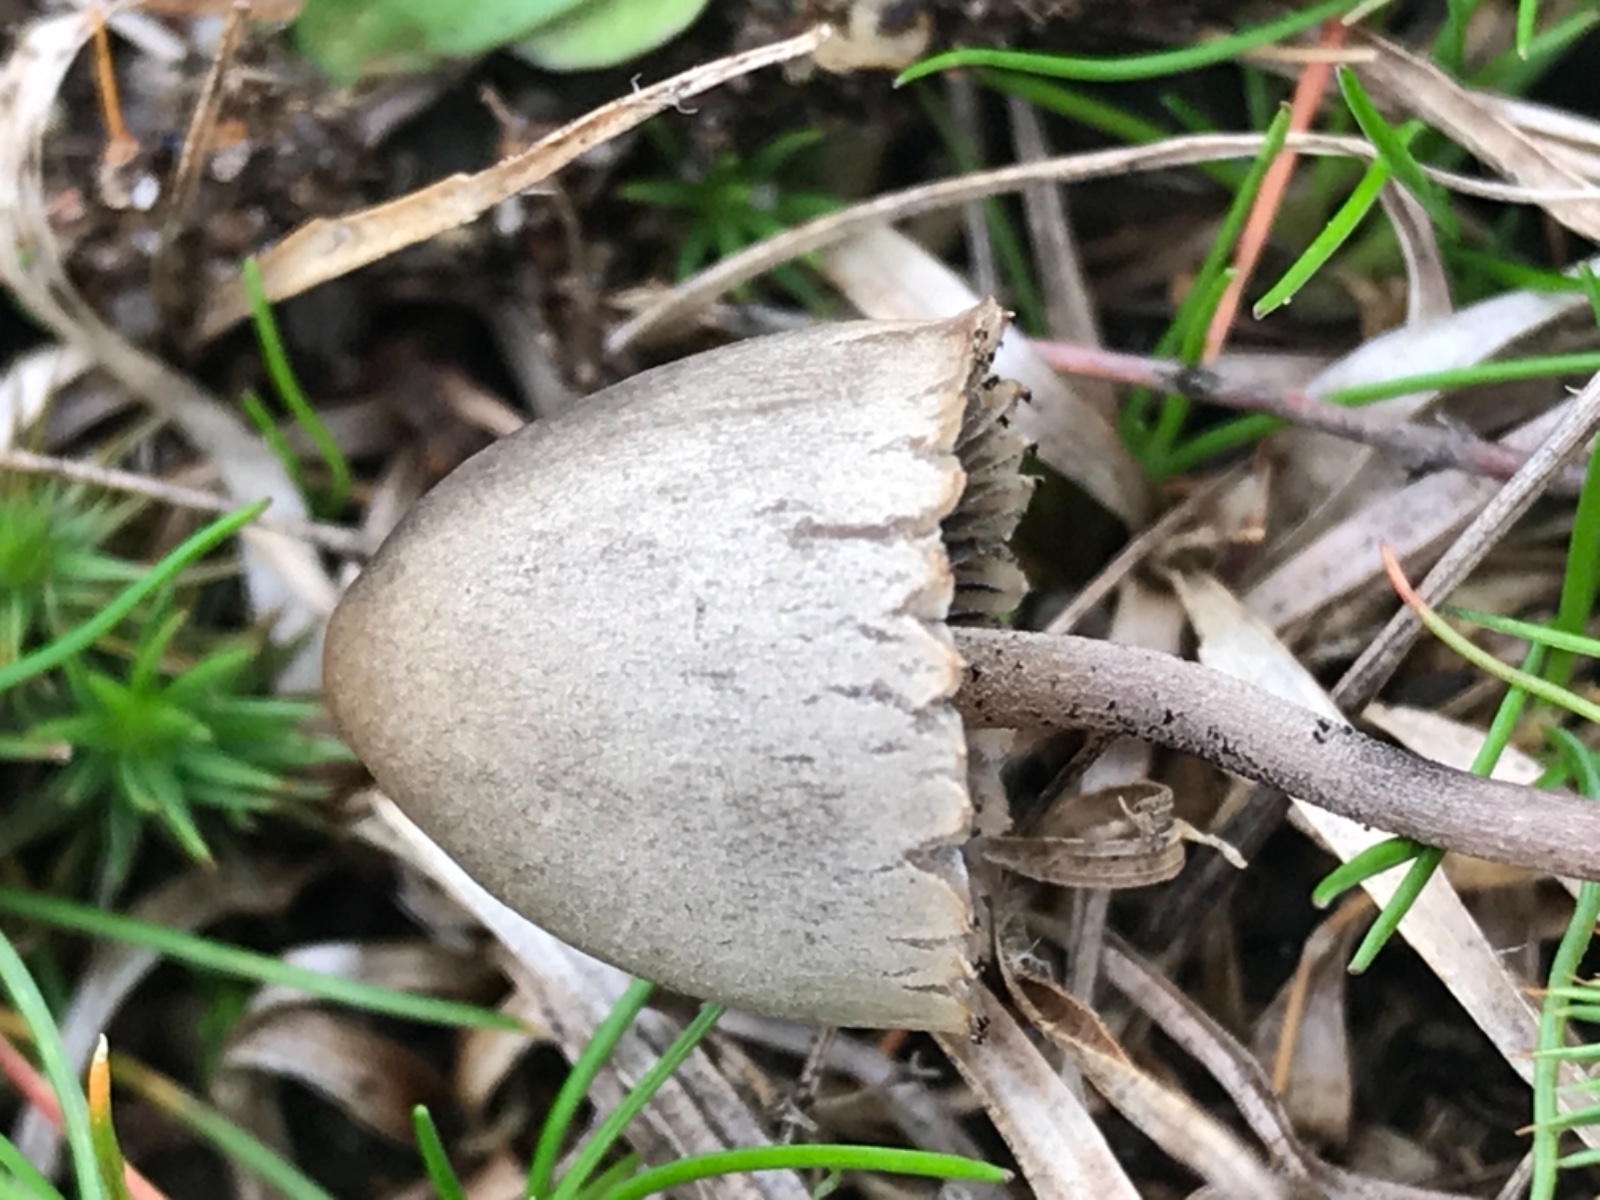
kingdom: Fungi
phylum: Basidiomycota
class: Agaricomycetes
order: Agaricales
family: Bolbitiaceae
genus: Panaeolus
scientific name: Panaeolus papilionaceus
